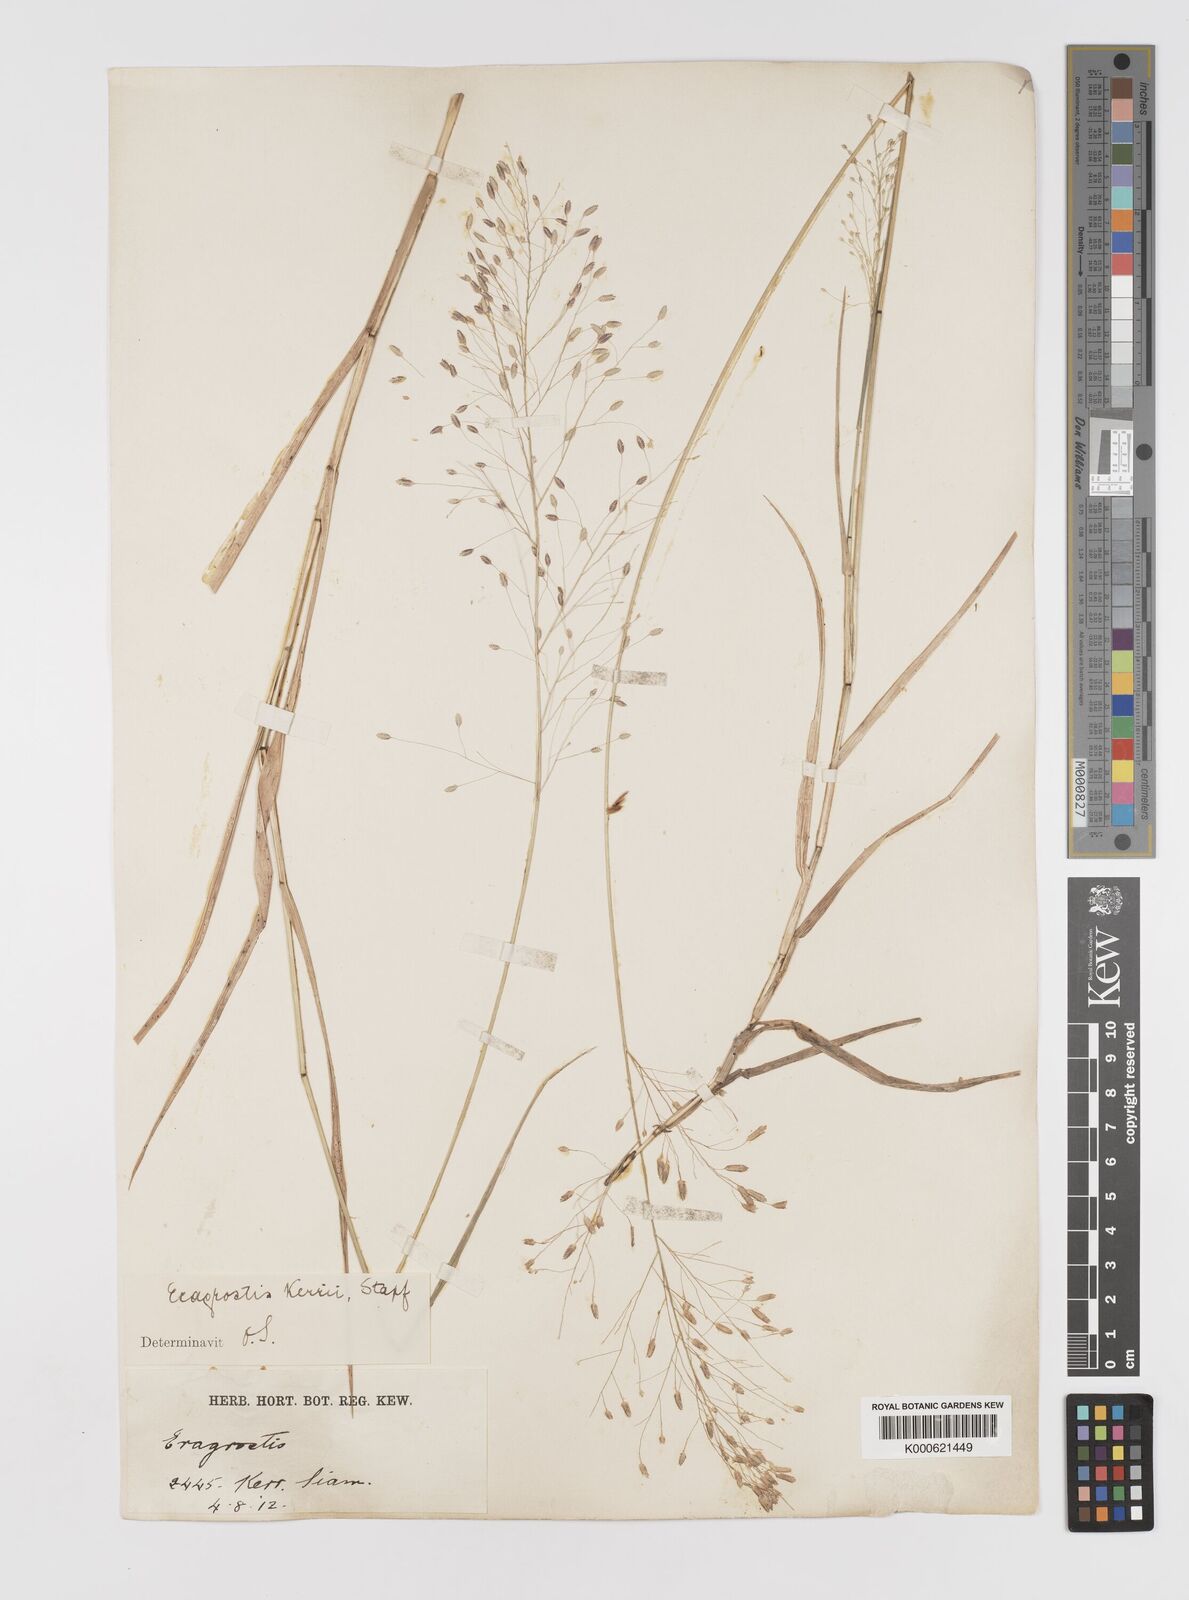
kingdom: Plantae
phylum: Tracheophyta
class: Liliopsida
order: Poales
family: Poaceae
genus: Eragrostis
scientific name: Eragrostis cumingii
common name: Cuming's lovegrass
